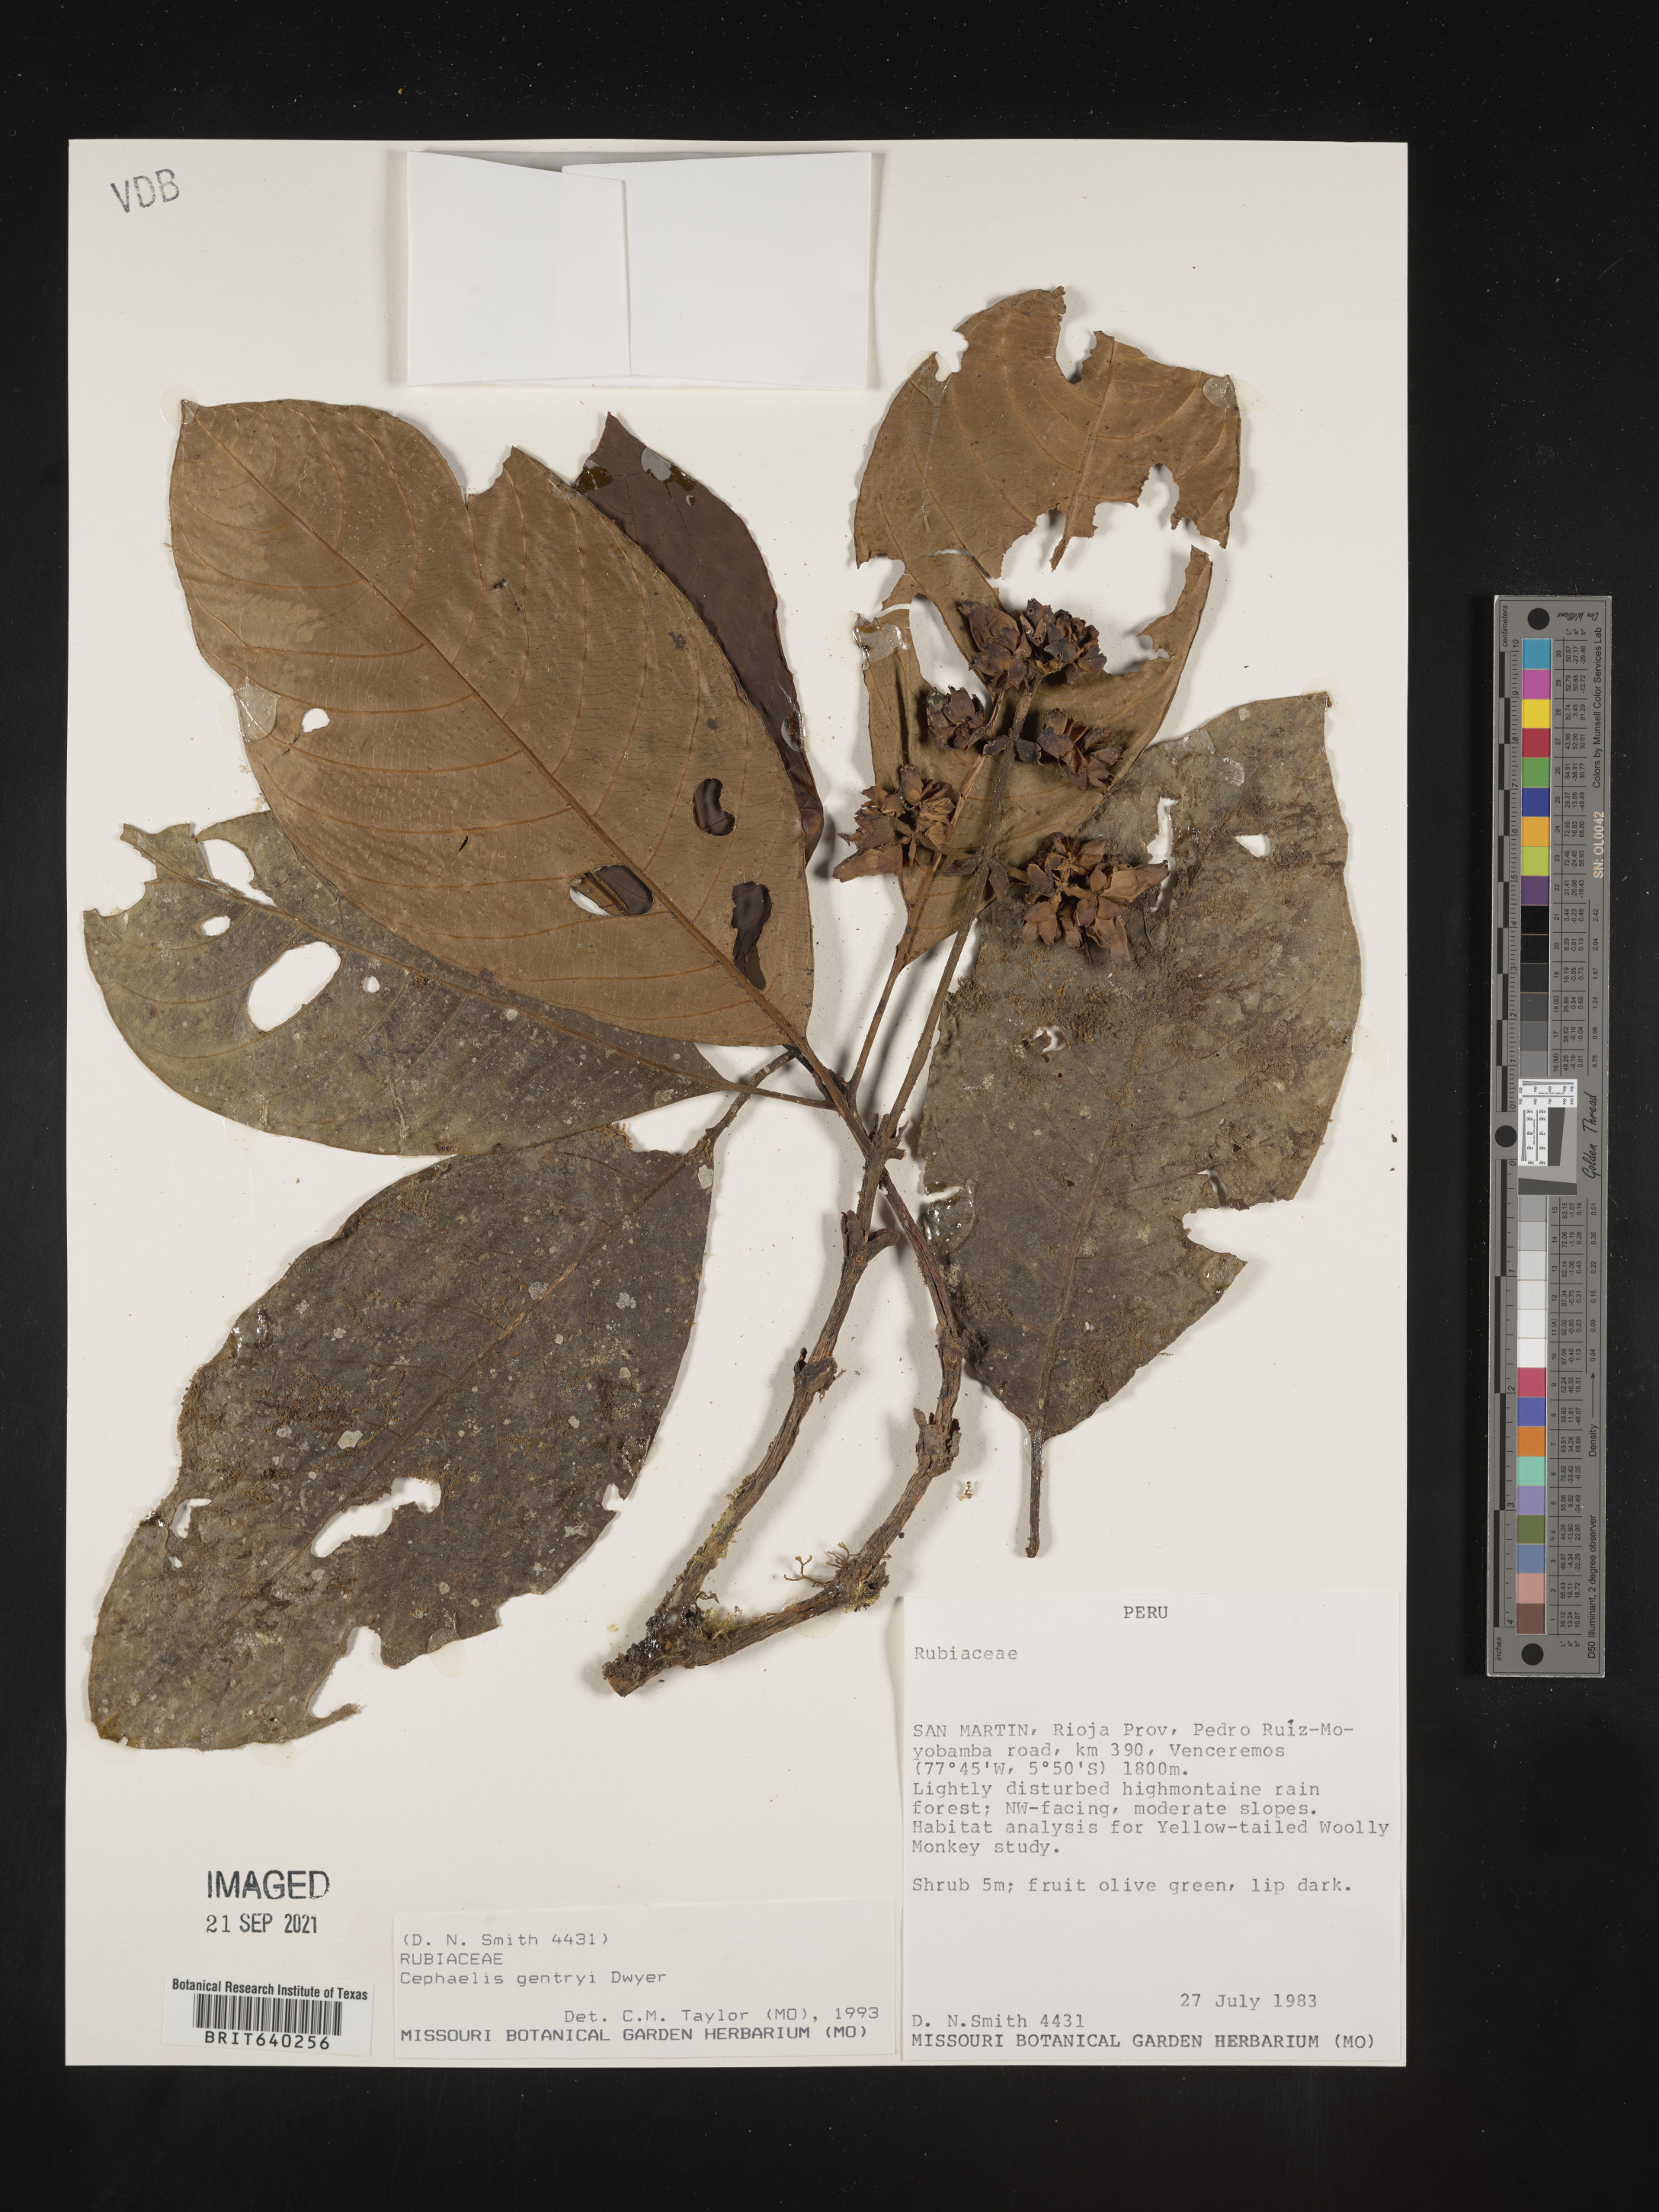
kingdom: Plantae
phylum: Tracheophyta
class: Magnoliopsida
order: Gentianales
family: Rubiaceae
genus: Psychotria
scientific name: Psychotria
